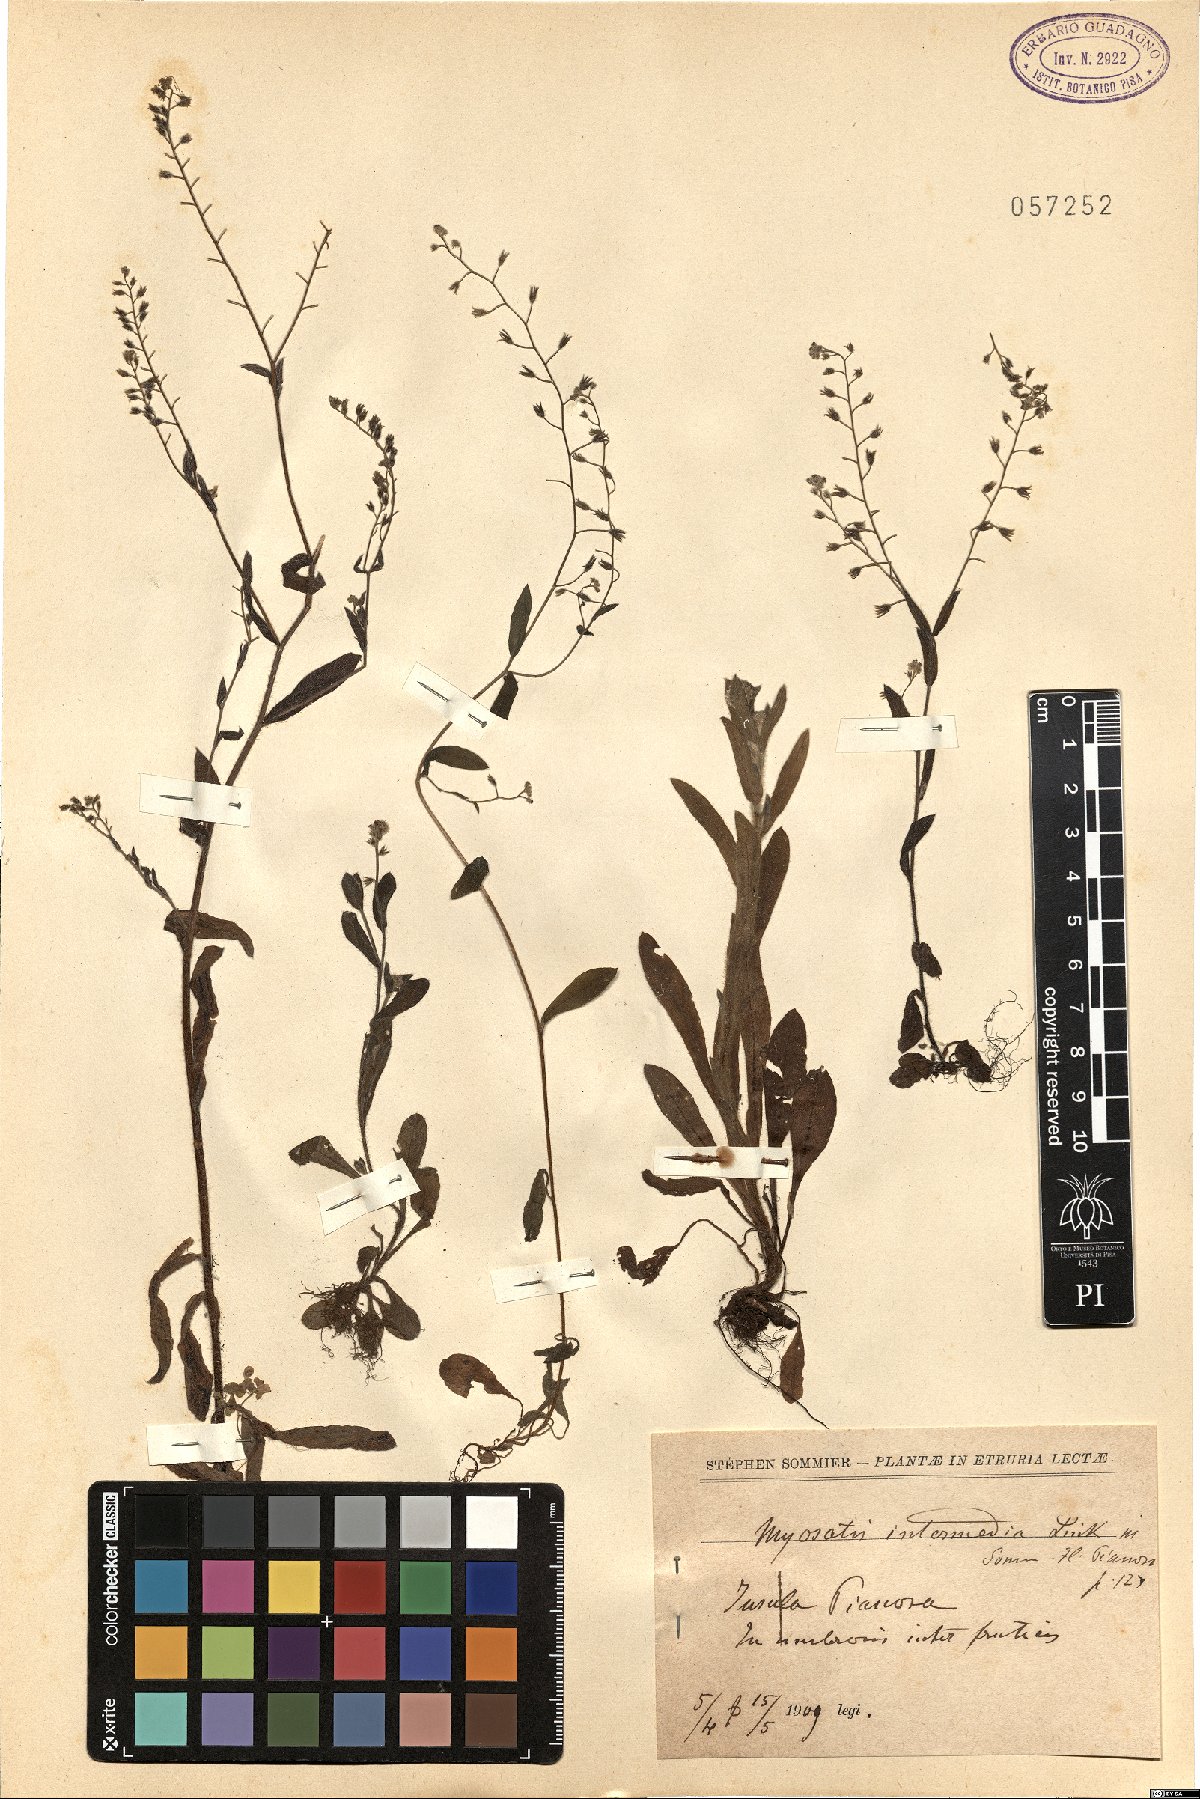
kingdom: Plantae
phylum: Tracheophyta
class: Magnoliopsida
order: Boraginales
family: Boraginaceae
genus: Myosotis
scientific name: Myosotis arvensis
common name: Field forget-me-not
